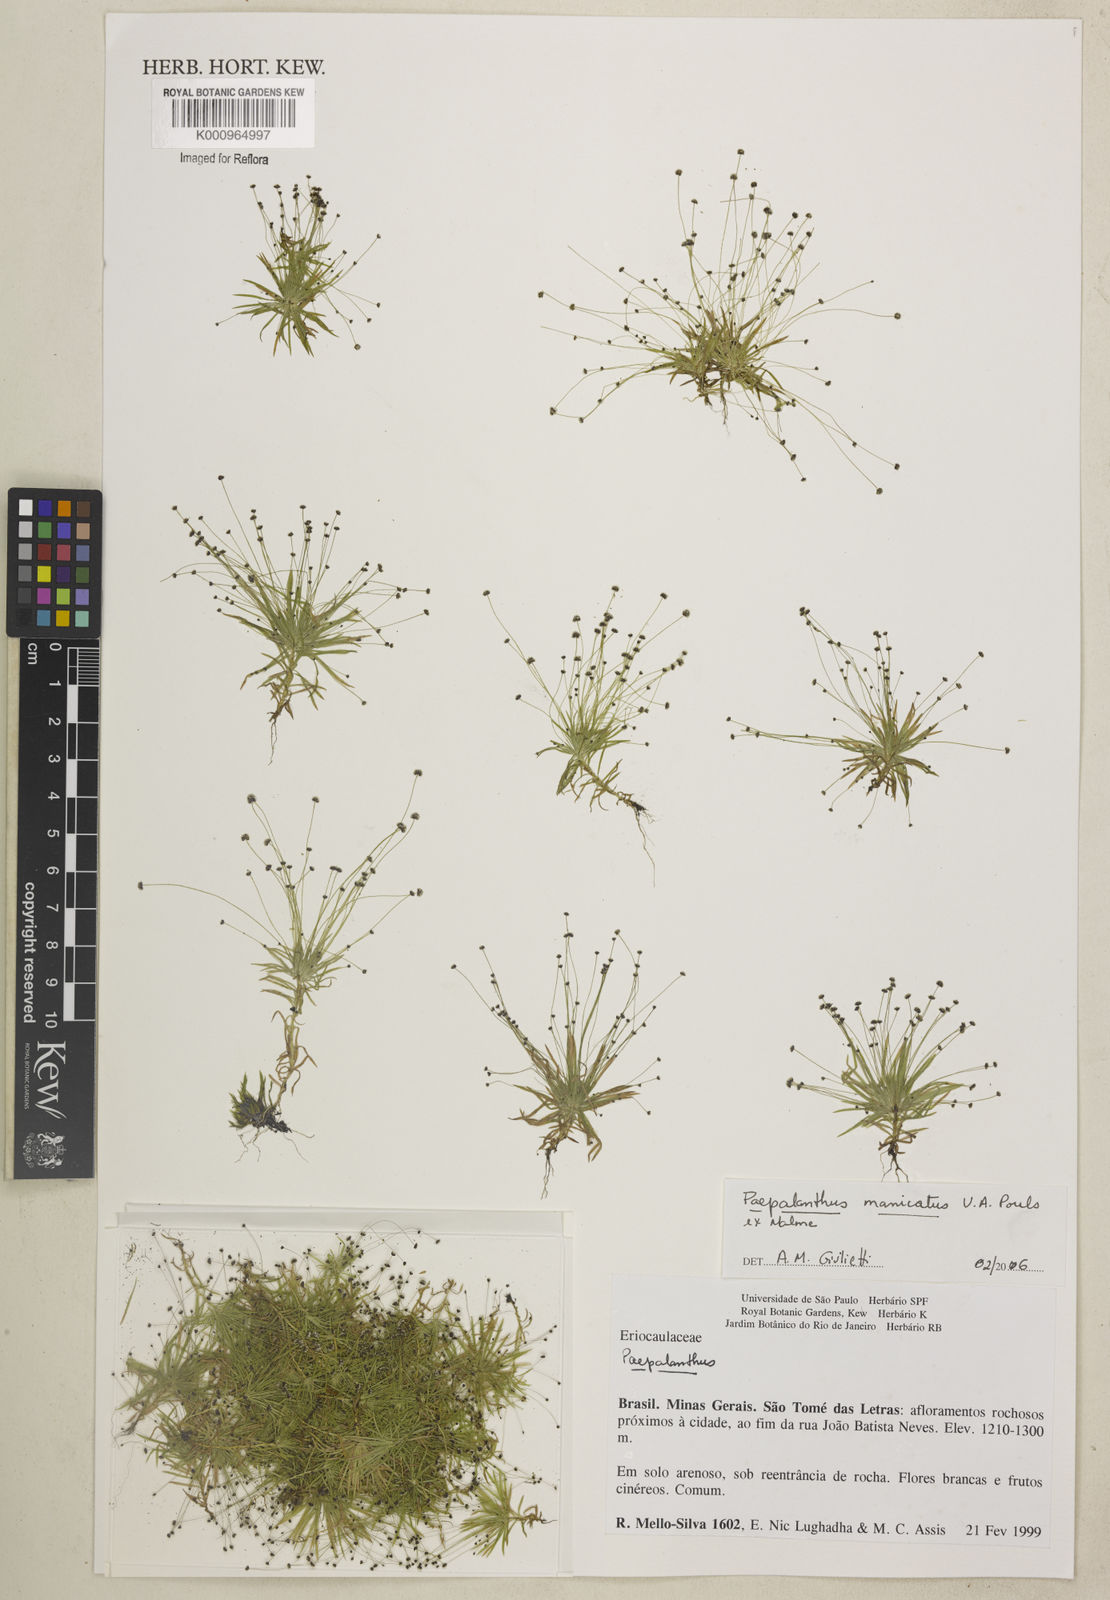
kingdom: Plantae
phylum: Tracheophyta
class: Liliopsida
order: Poales
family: Eriocaulaceae
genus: Paepalanthus
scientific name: Paepalanthus manicatus
